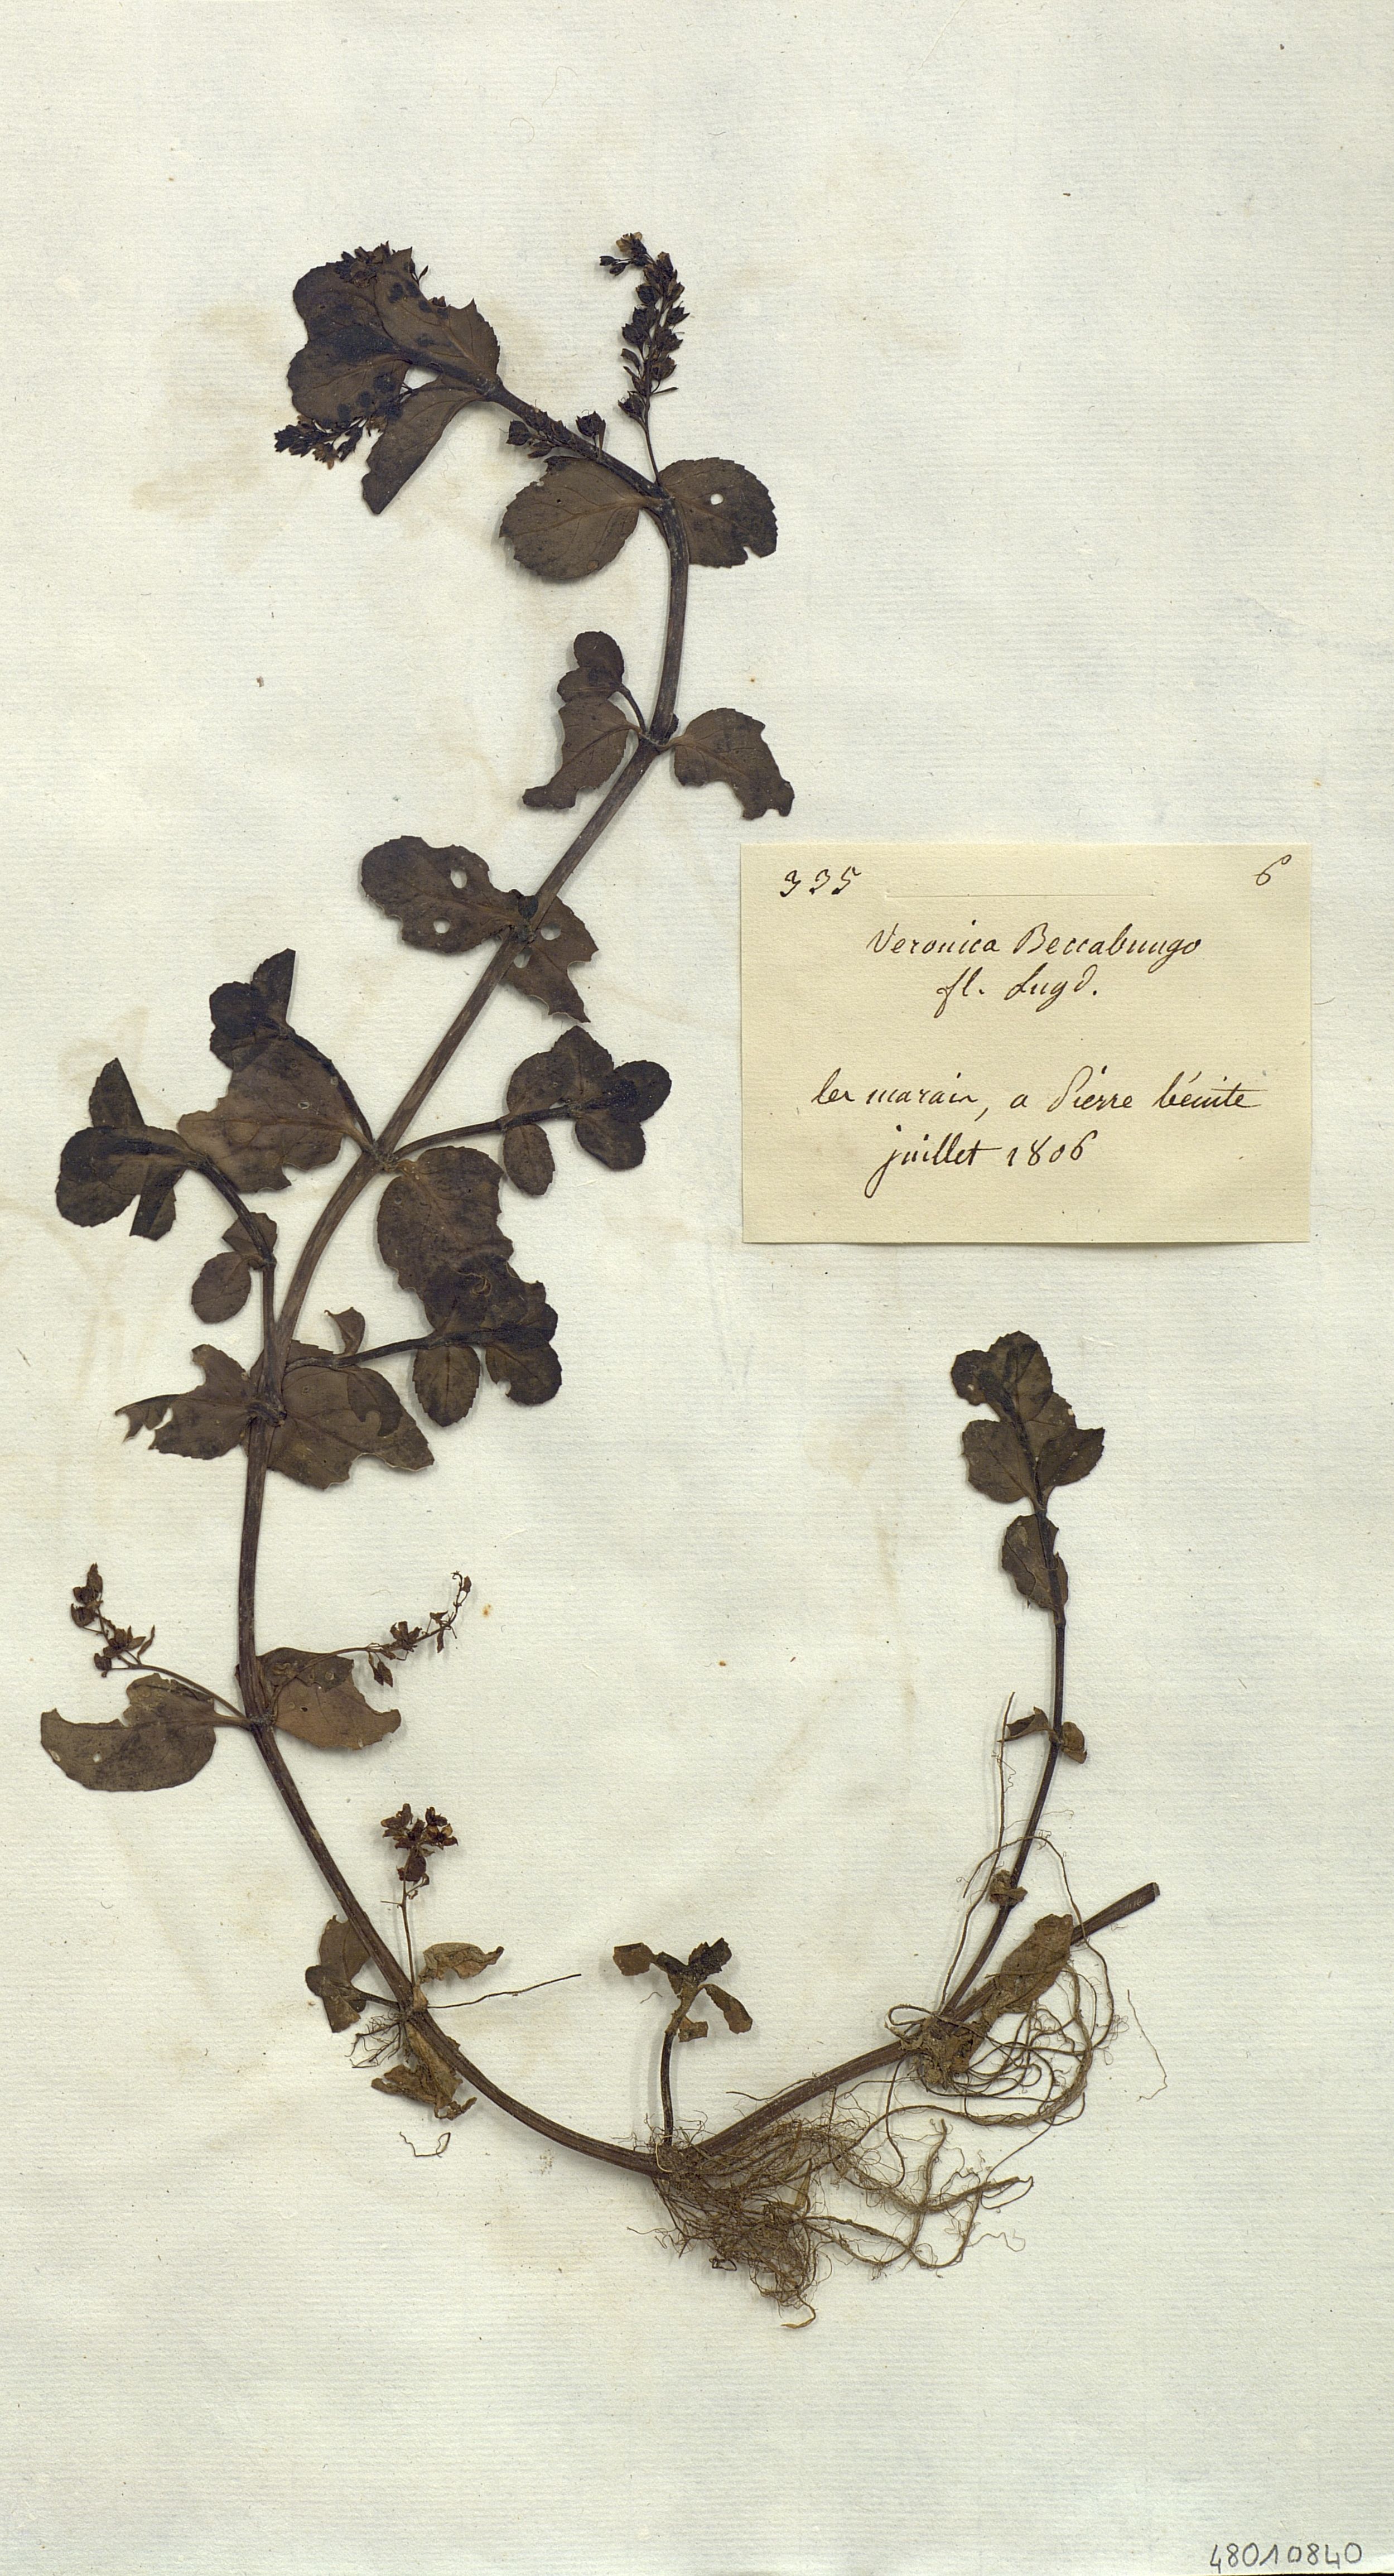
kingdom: Plantae
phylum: Tracheophyta
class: Magnoliopsida
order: Lamiales
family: Plantaginaceae
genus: Veronica
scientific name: Veronica beccabunga
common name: Brooklime
